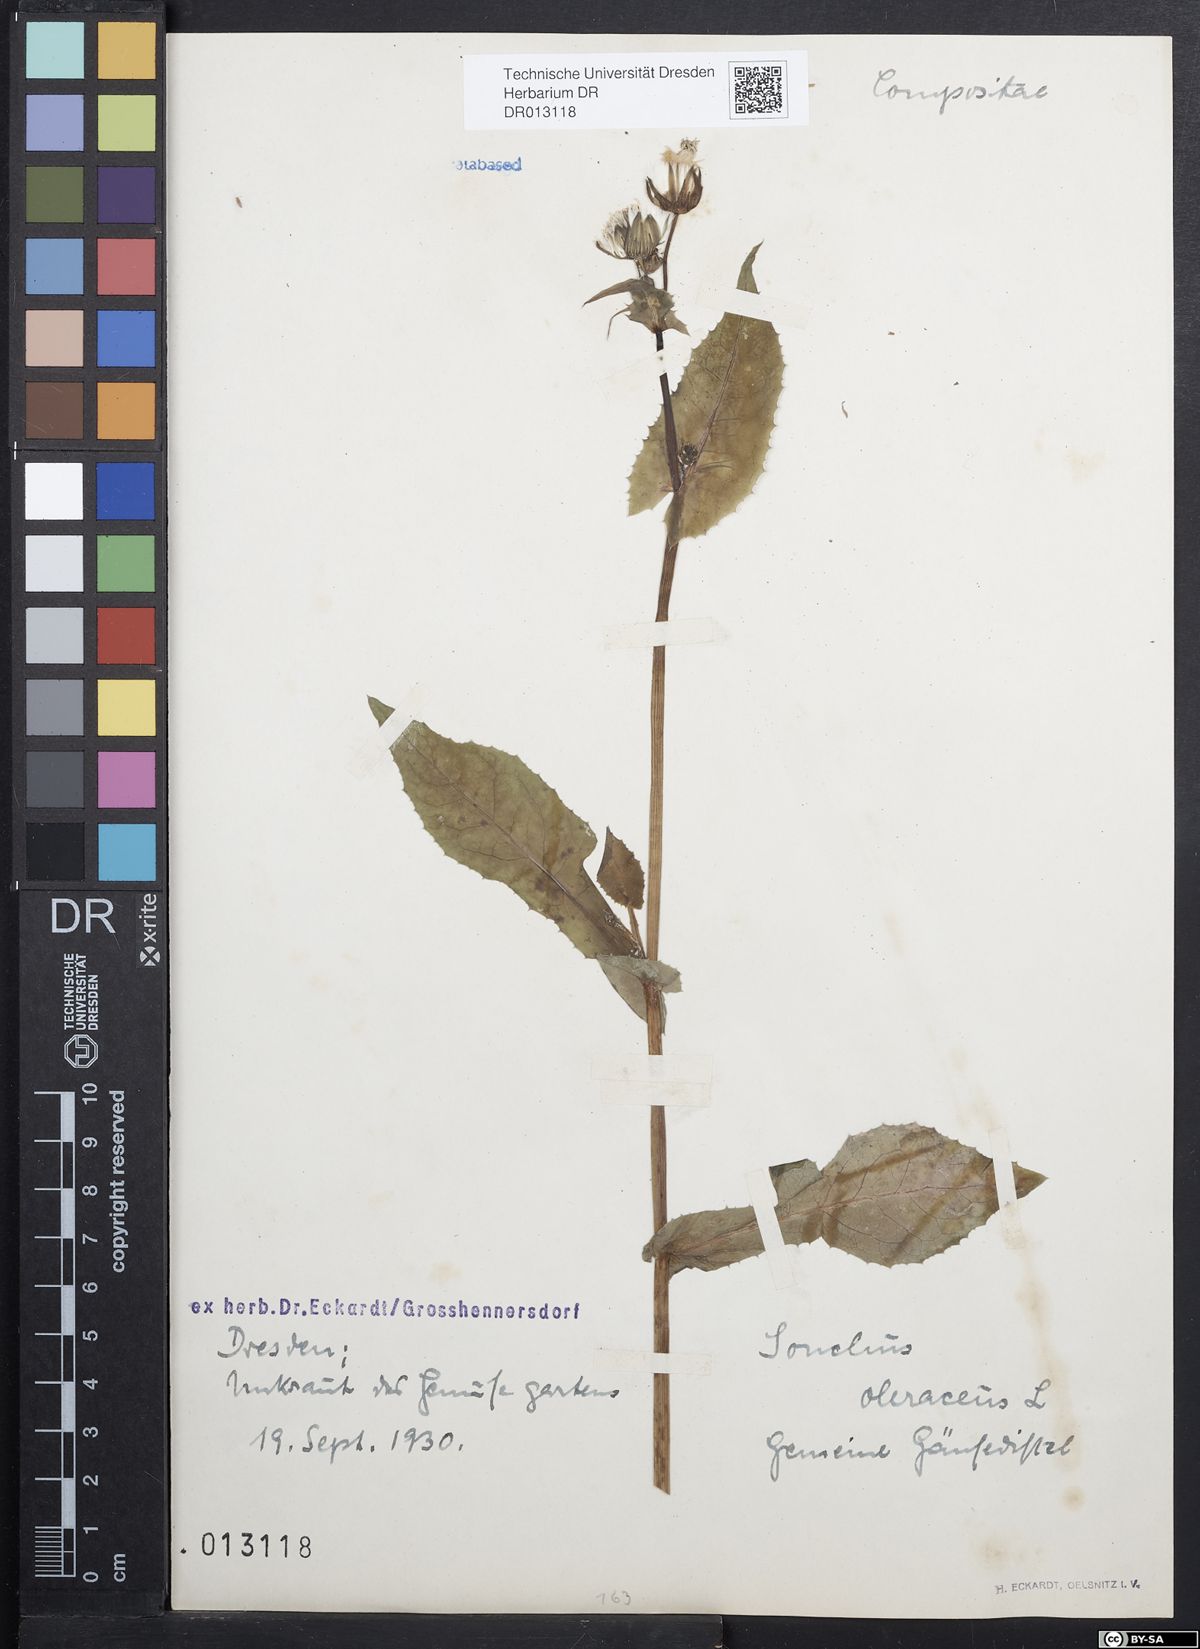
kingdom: Plantae
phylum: Tracheophyta
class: Magnoliopsida
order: Asterales
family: Asteraceae
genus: Sonchus
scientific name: Sonchus oleraceus
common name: Common sowthistle
